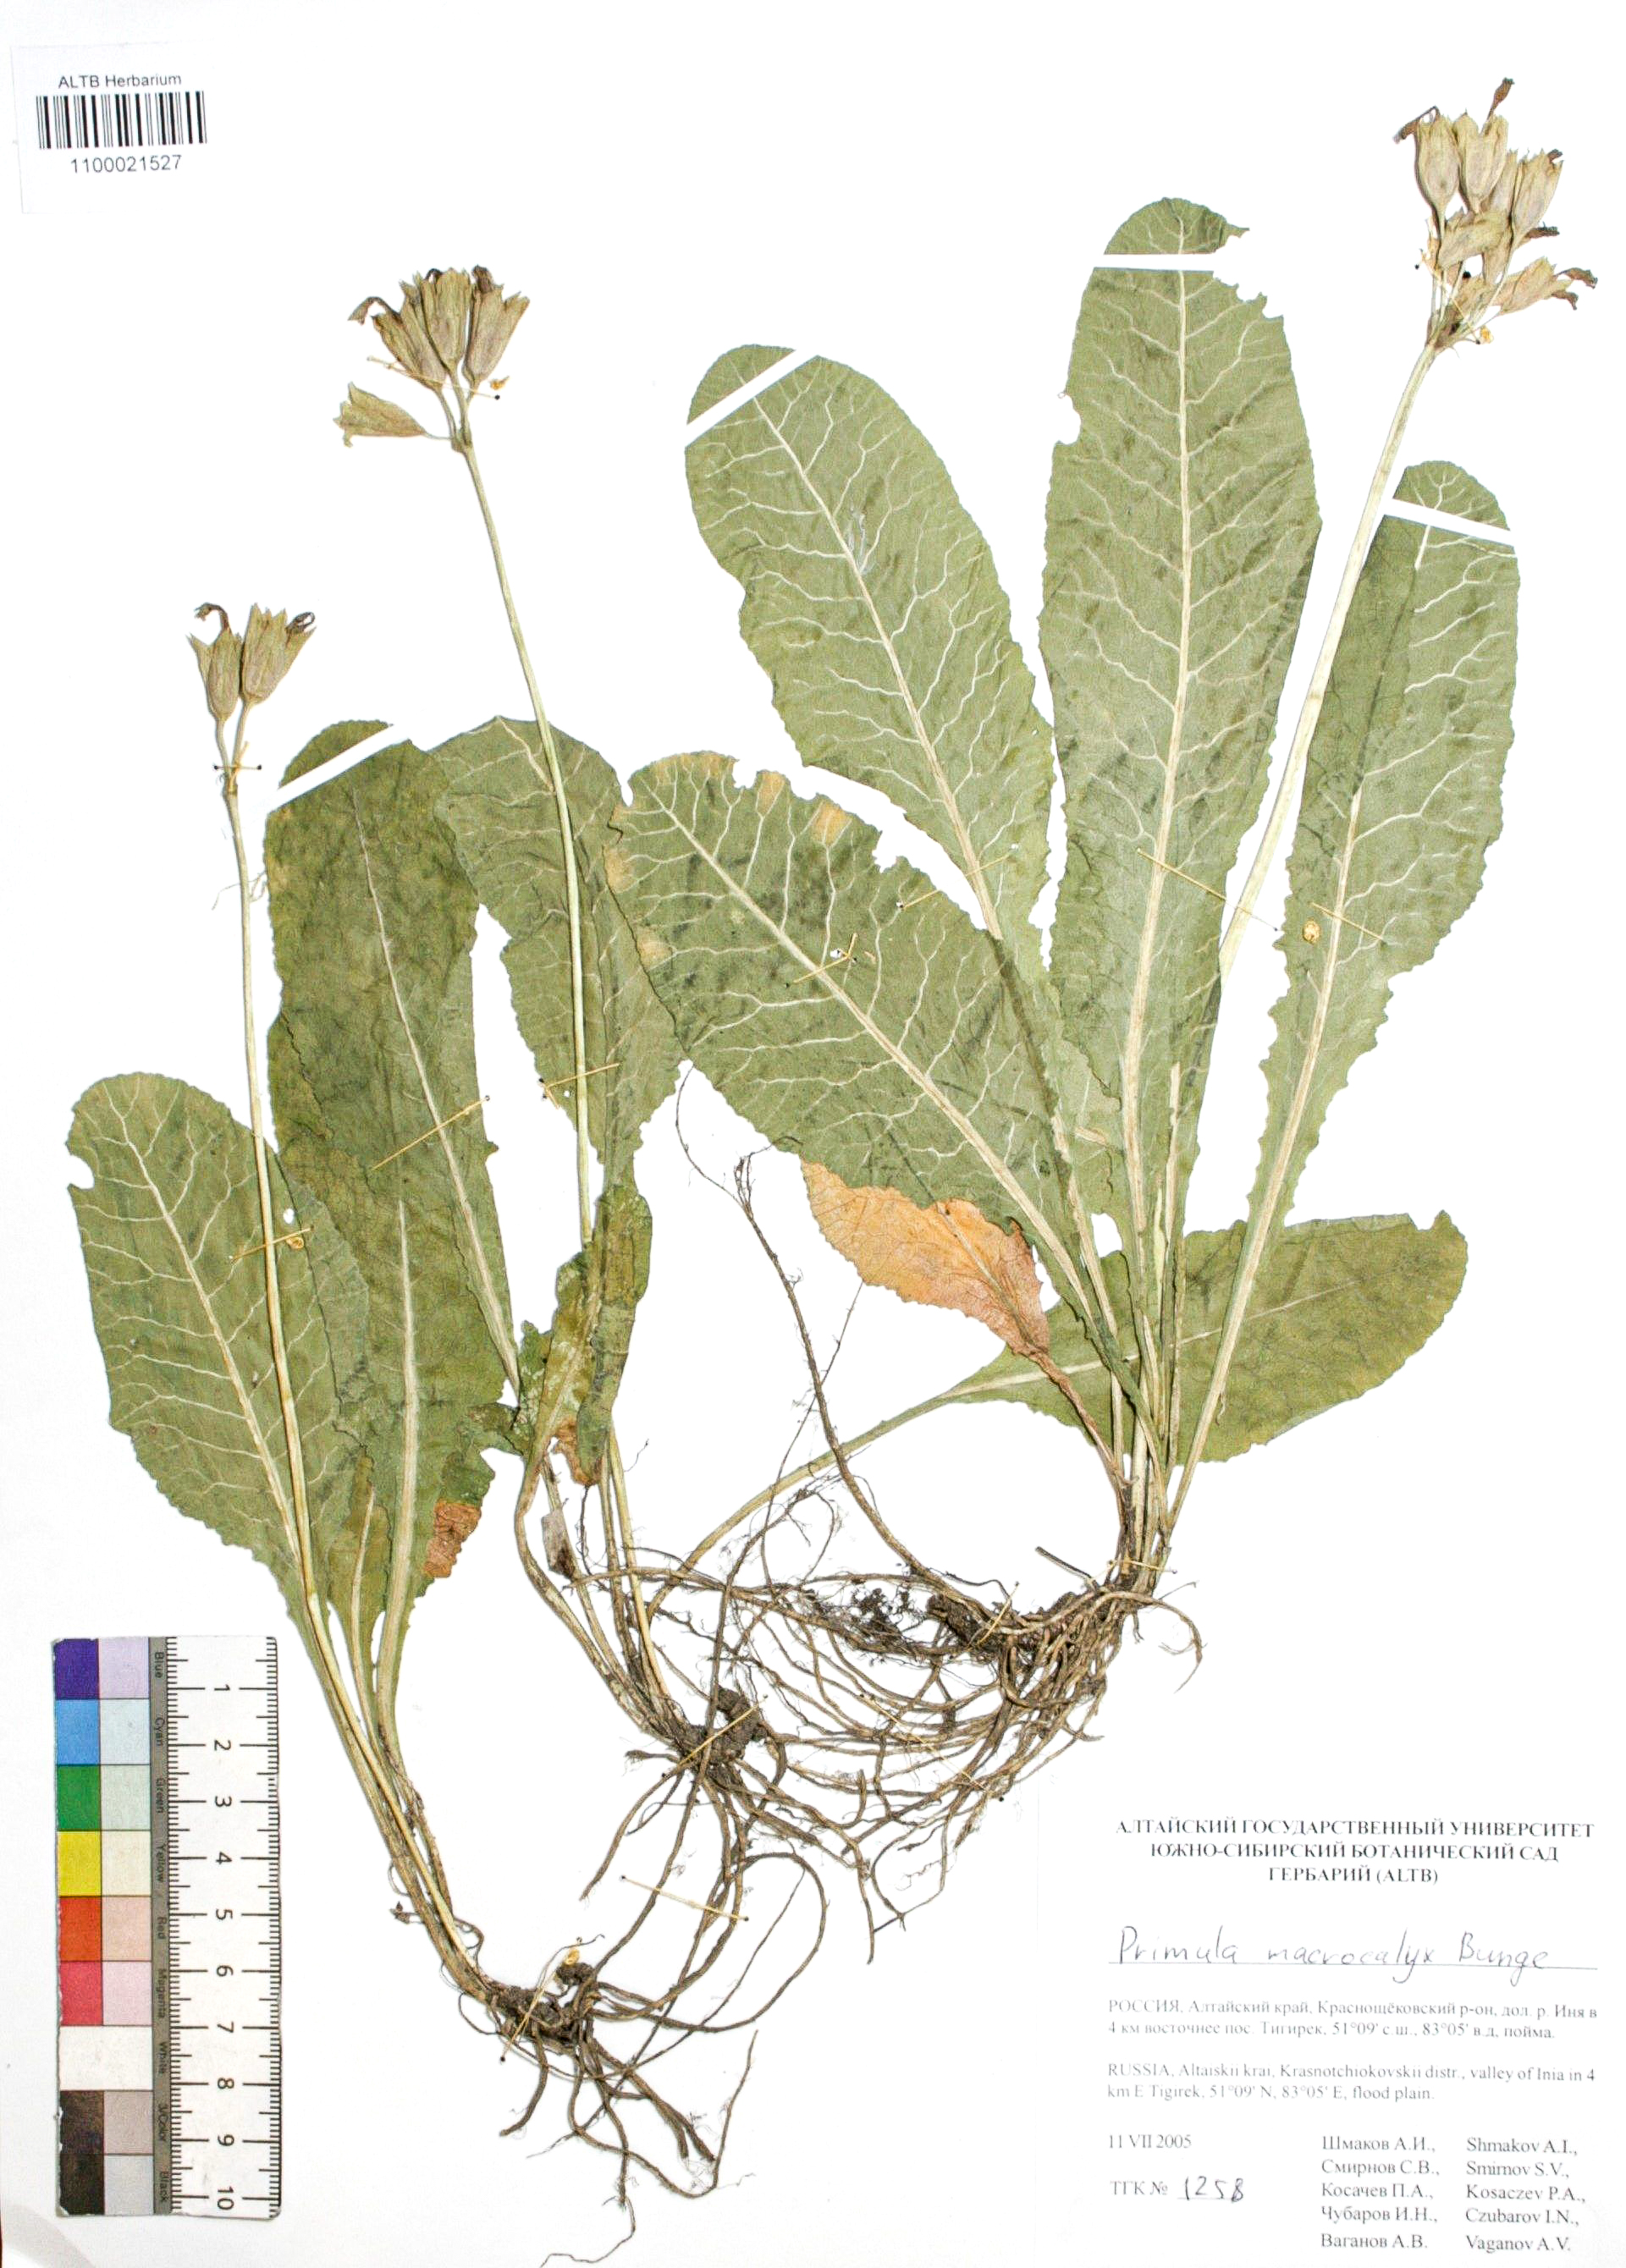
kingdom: Plantae
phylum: Tracheophyta
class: Magnoliopsida
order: Ericales
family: Primulaceae
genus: Primula
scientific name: Primula veris
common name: Cowslip
